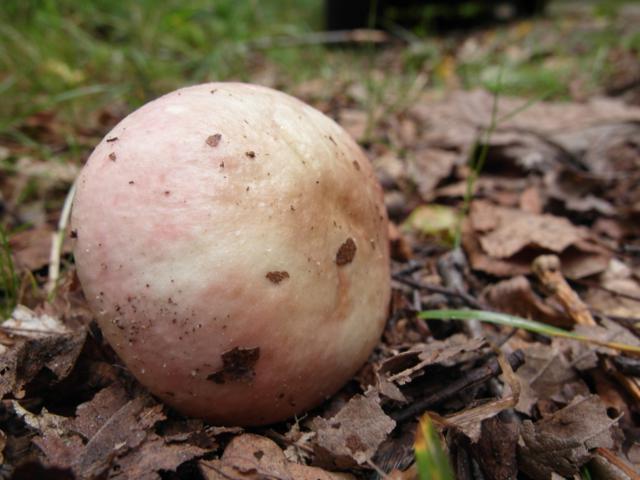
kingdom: Fungi
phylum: Basidiomycota
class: Agaricomycetes
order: Russulales
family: Russulaceae
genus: Russula
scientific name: Russula depallens
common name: falmende skørhat
